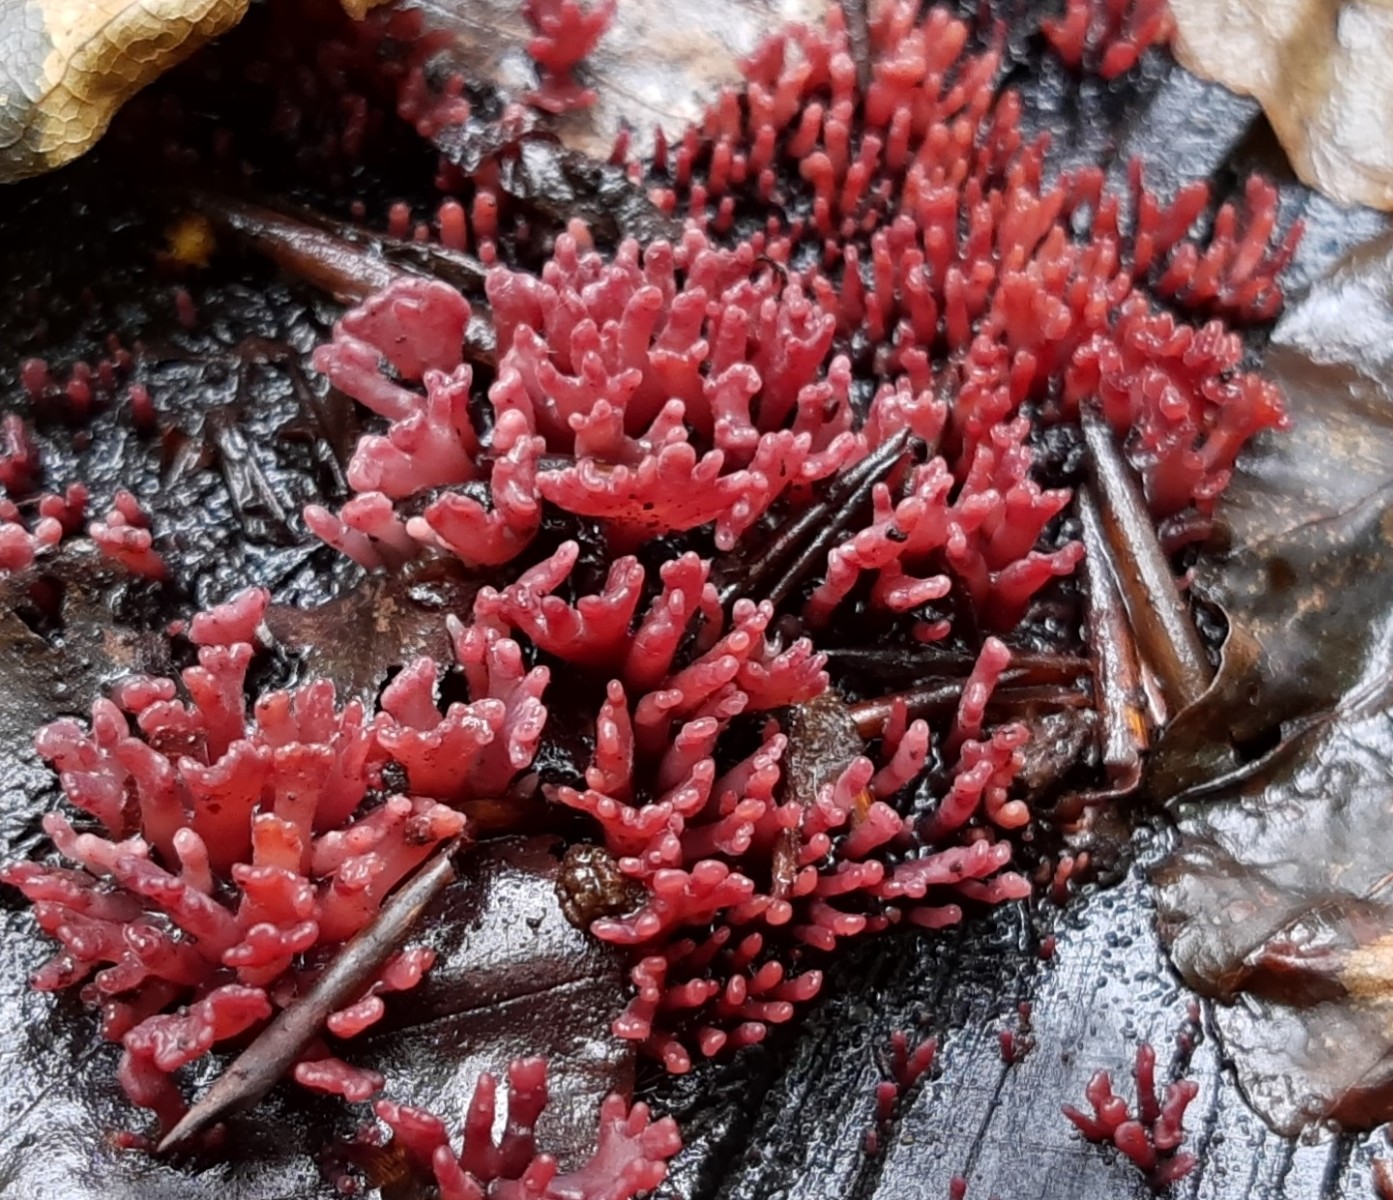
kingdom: Fungi
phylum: Ascomycota
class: Leotiomycetes
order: Helotiales
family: Gelatinodiscaceae
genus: Ascocoryne
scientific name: Ascocoryne sarcoides
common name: rødlilla sejskive
